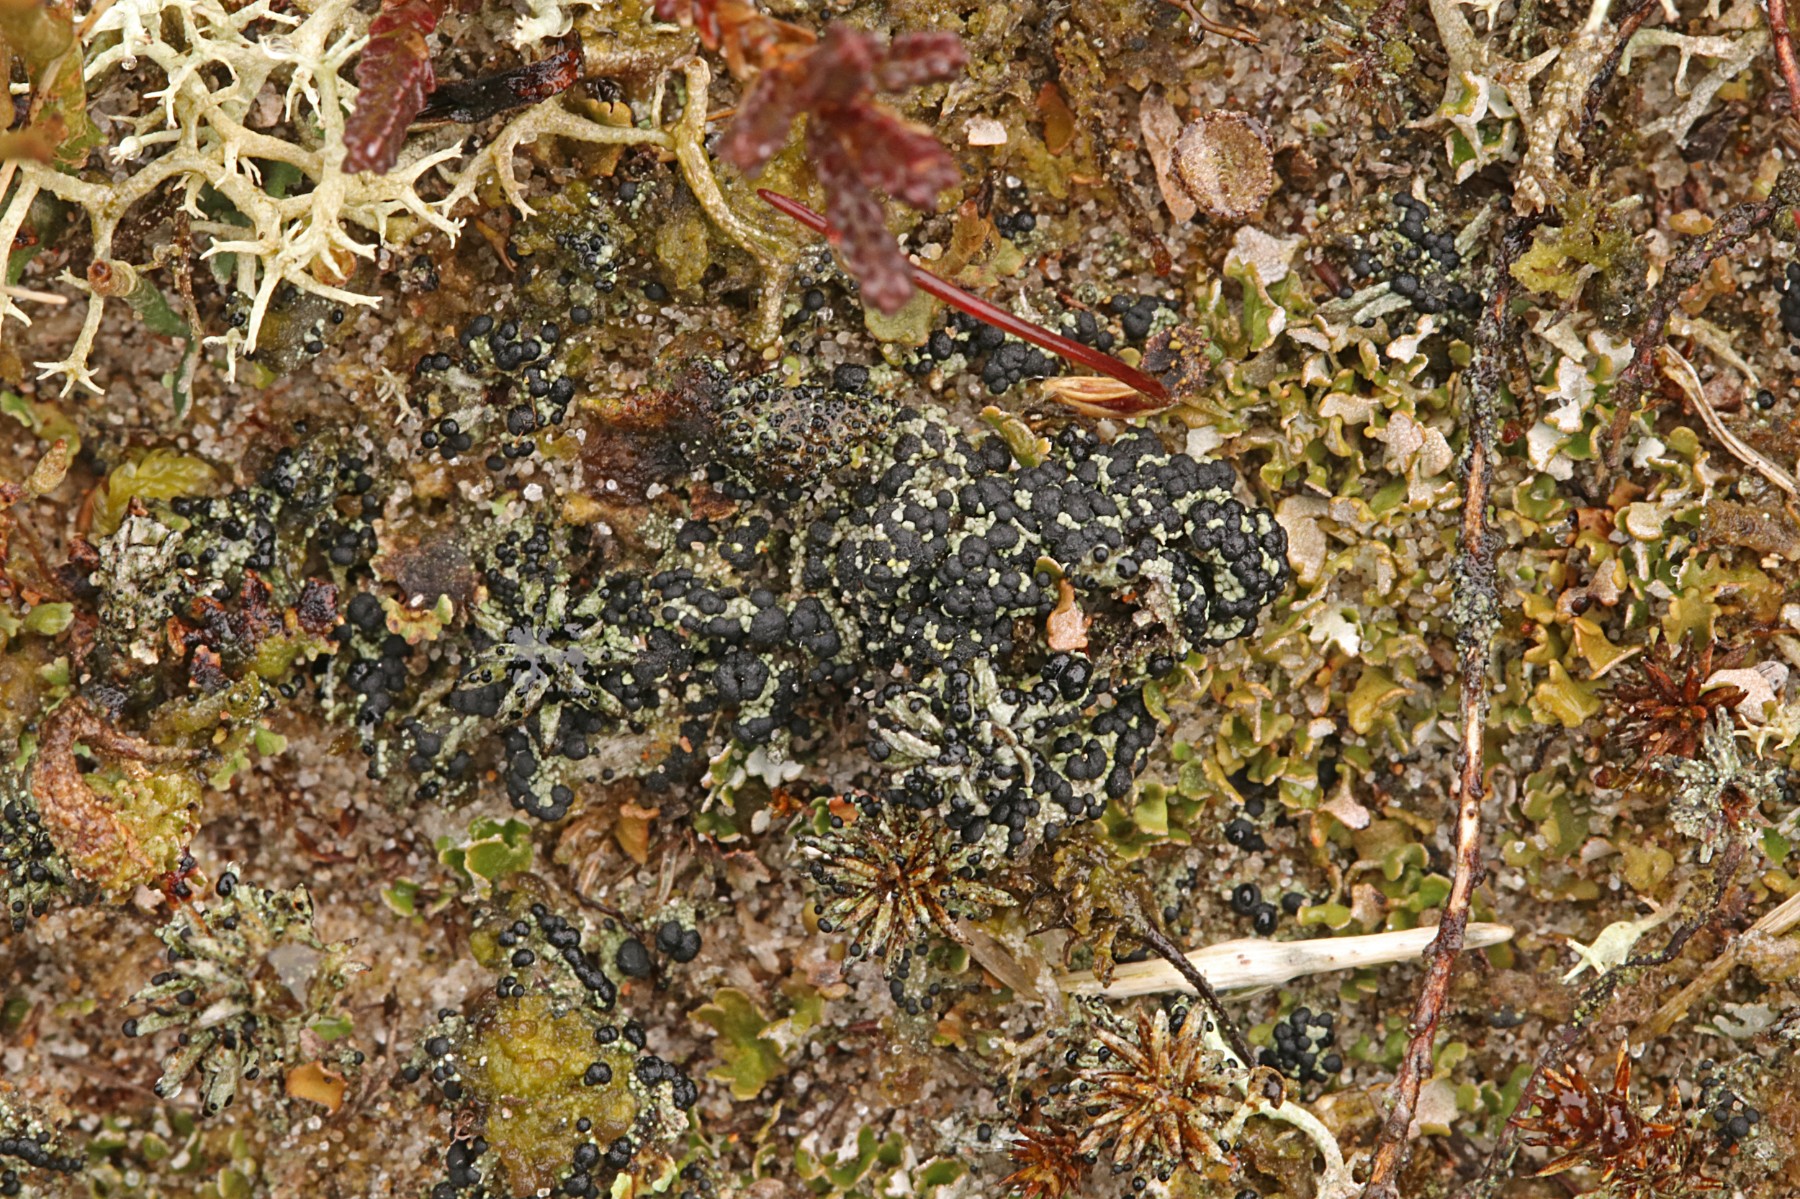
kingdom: Fungi
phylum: Ascomycota
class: Lecanoromycetes
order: Lecanorales
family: Byssolomataceae
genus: Micarea
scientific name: Micarea lignaria
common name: tørve-knaplav
